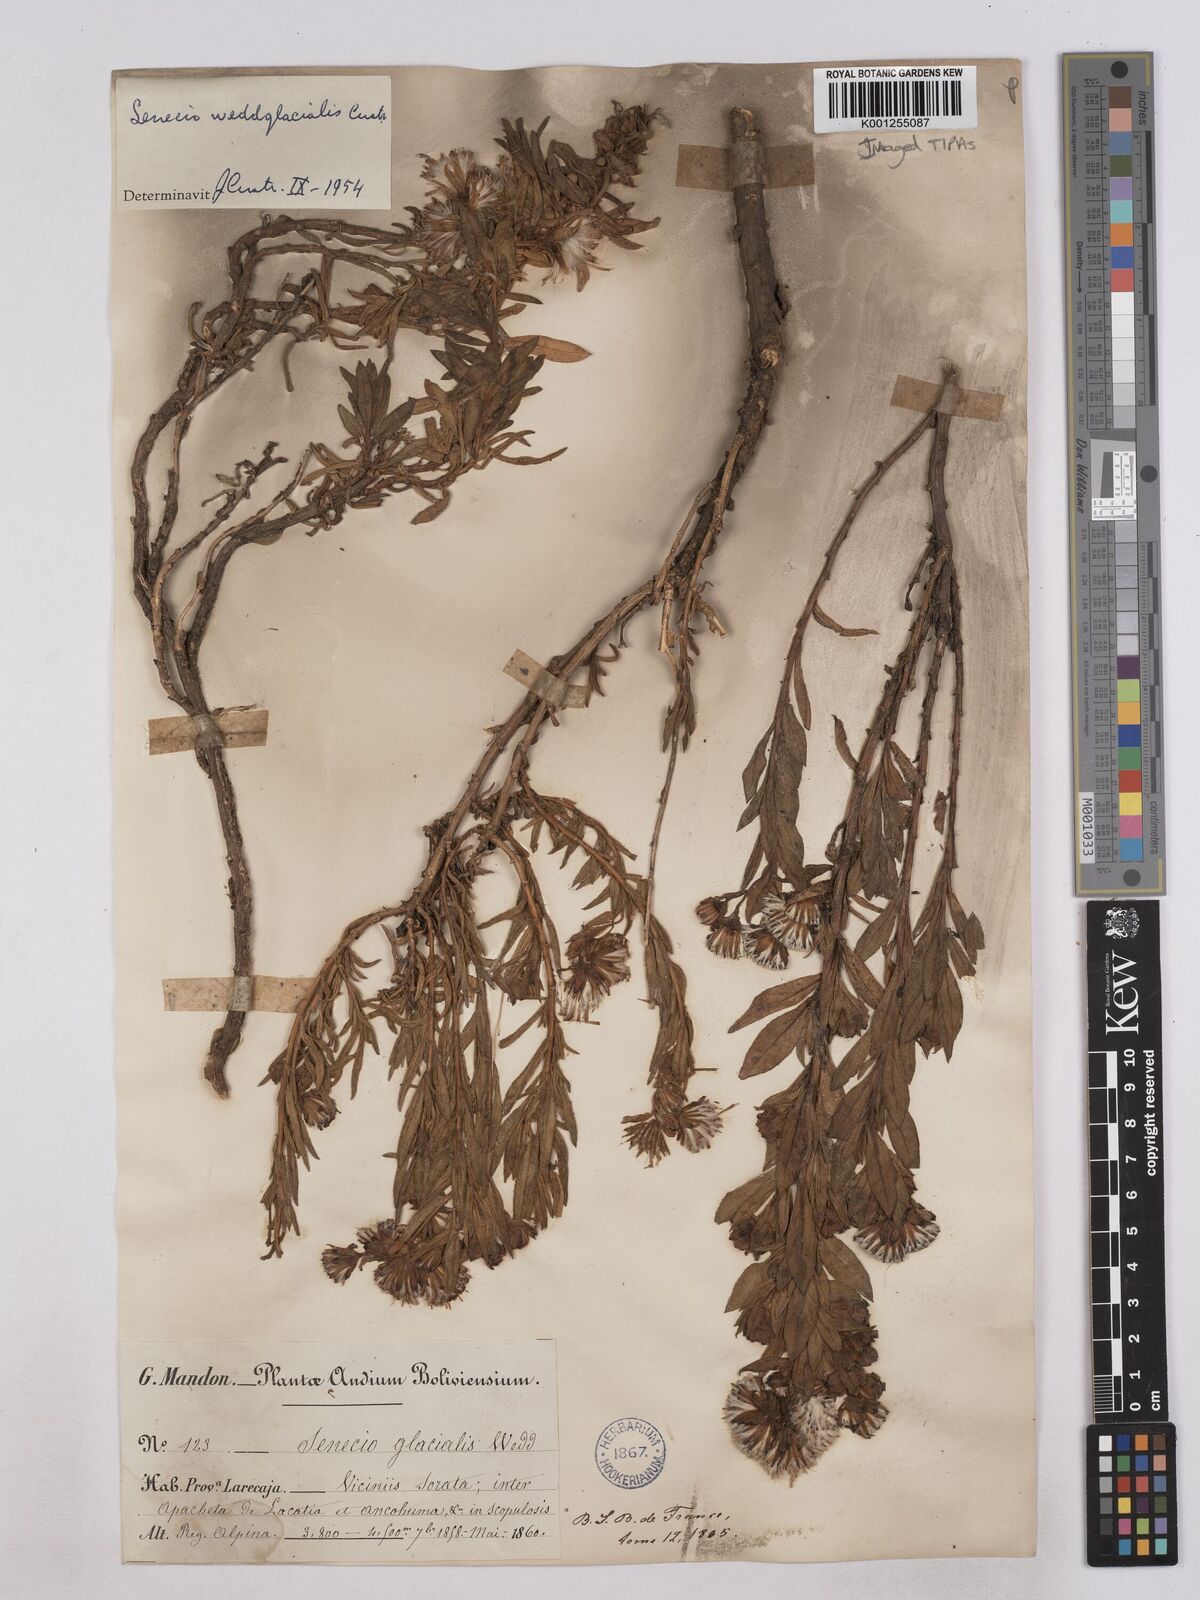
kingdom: Plantae
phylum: Tracheophyta
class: Magnoliopsida
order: Asterales
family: Asteraceae
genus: Senecio
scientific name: Senecio wedglacialis
